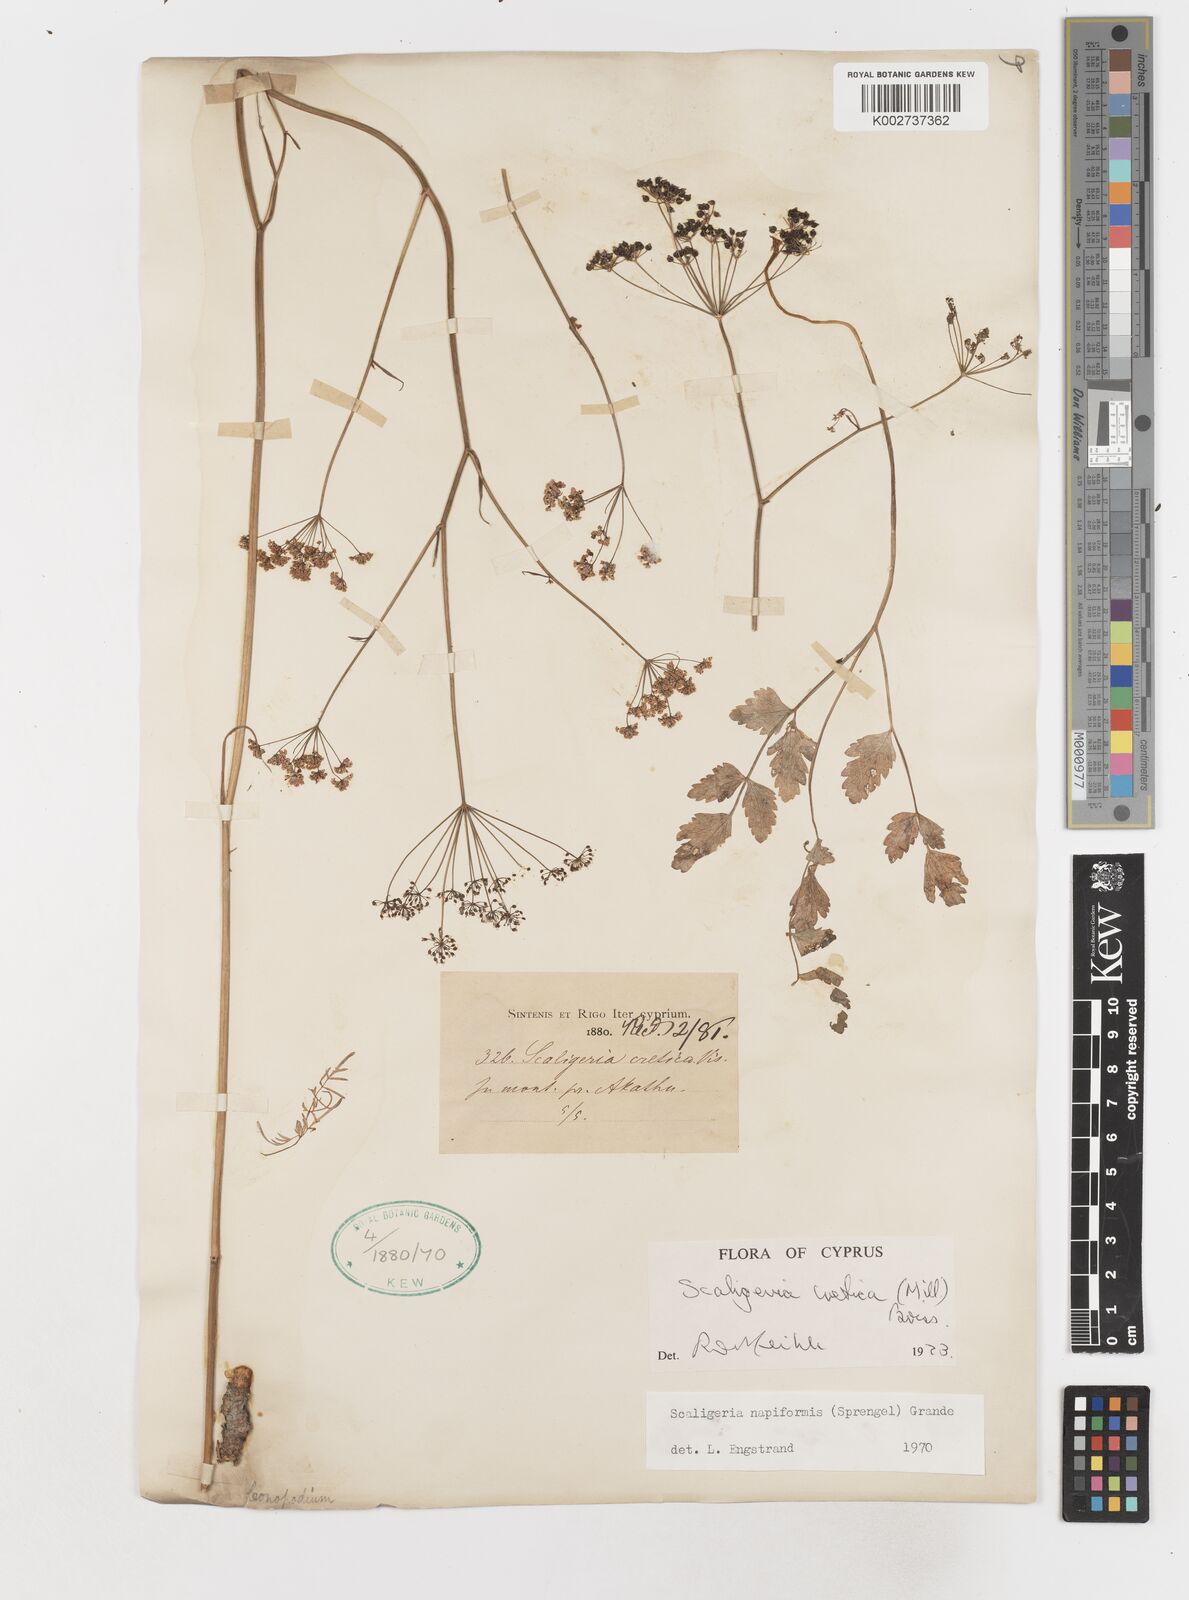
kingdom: Plantae
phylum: Tracheophyta
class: Magnoliopsida
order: Apiales
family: Apiaceae
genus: Scaligeria
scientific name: Scaligeria
